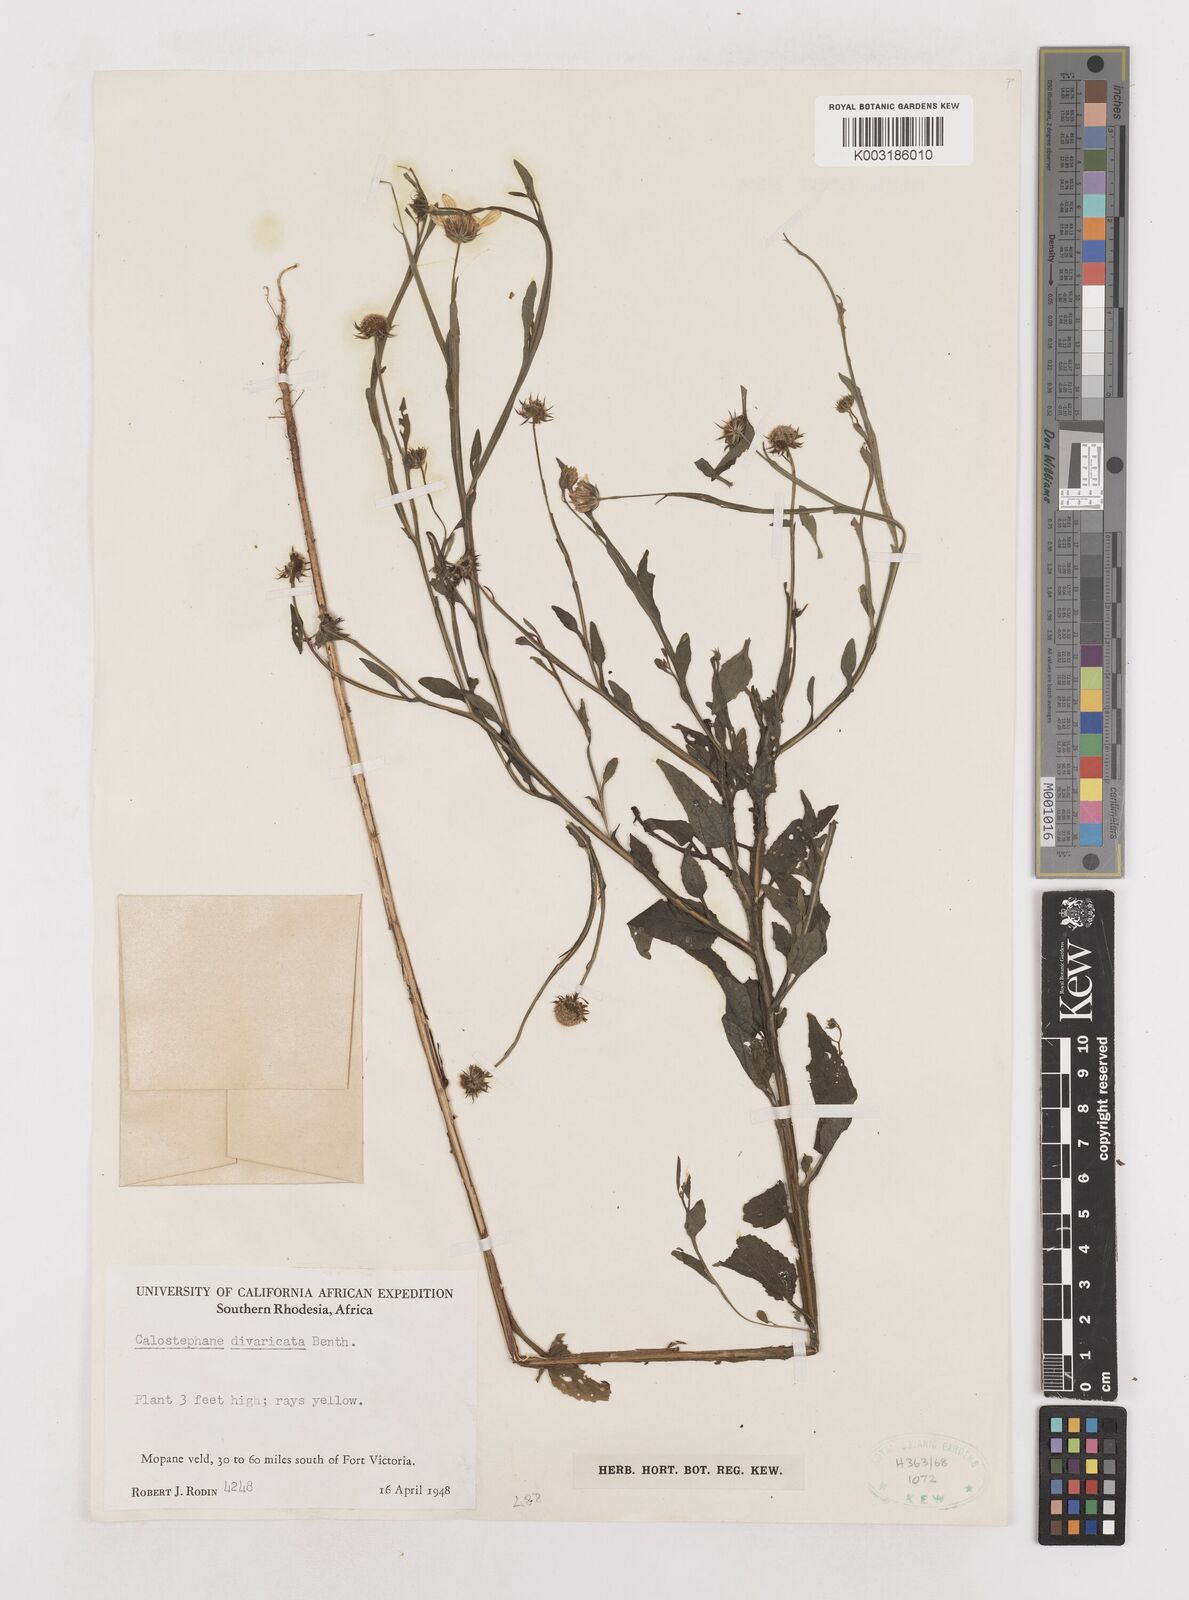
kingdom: Plantae
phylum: Tracheophyta
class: Magnoliopsida
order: Asterales
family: Asteraceae
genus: Calostephane
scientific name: Calostephane divaricata
